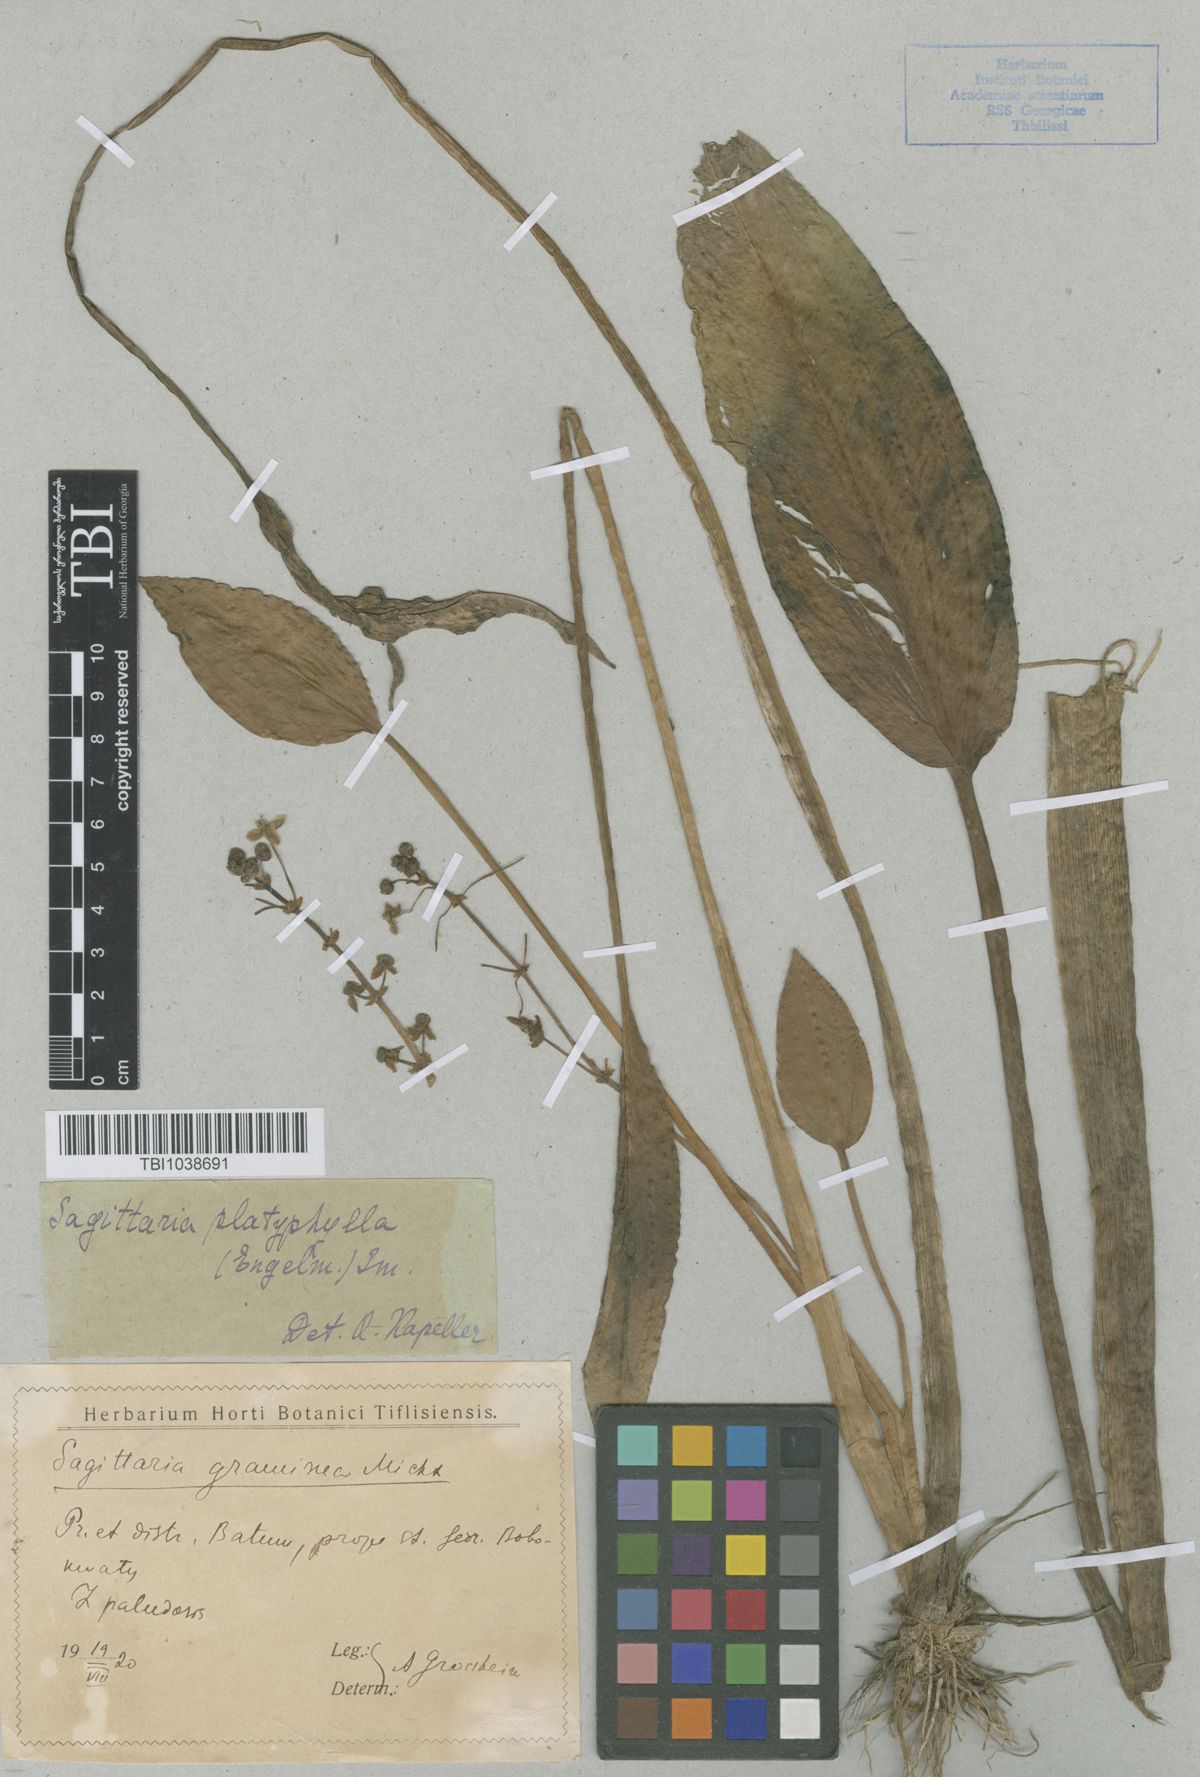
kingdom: Plantae
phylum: Tracheophyta
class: Liliopsida
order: Alismatales
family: Alismataceae
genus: Sagittaria
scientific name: Sagittaria platyphylla
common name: Broad-leaf arrowhead
